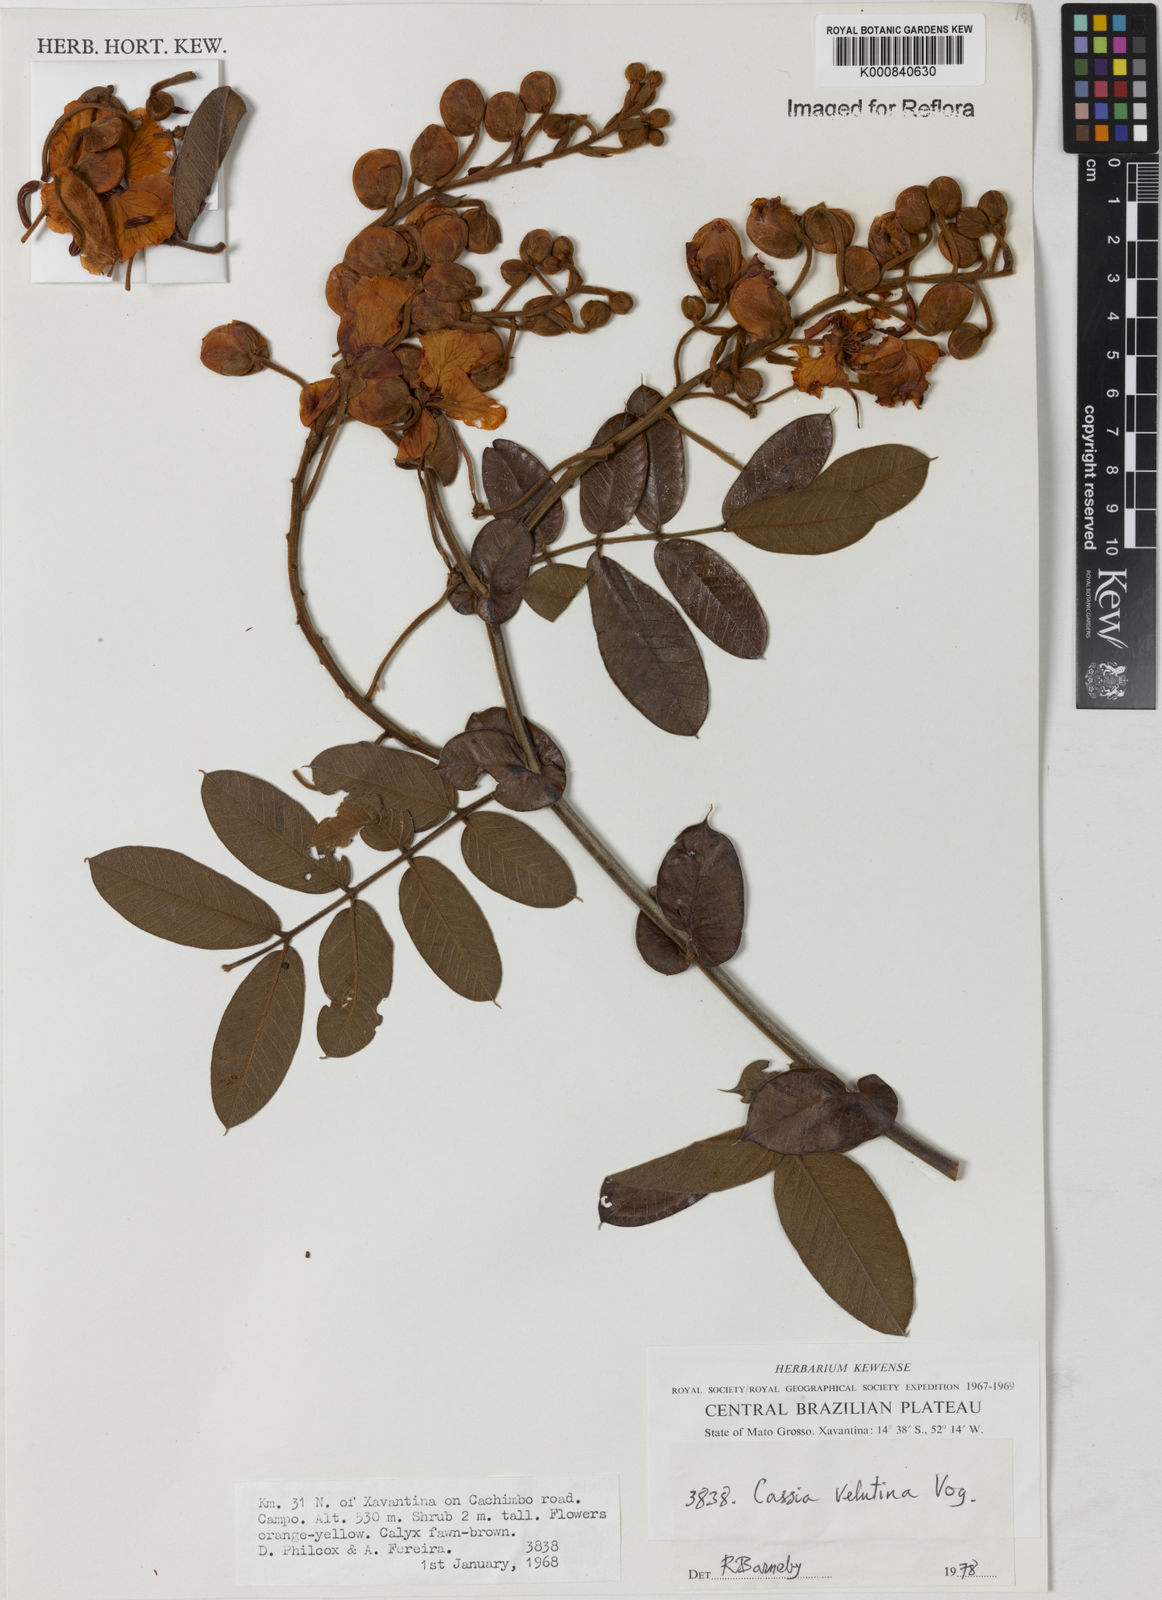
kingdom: Plantae
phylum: Tracheophyta
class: Magnoliopsida
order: Fabales
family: Fabaceae
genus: Senna
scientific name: Senna velutina
